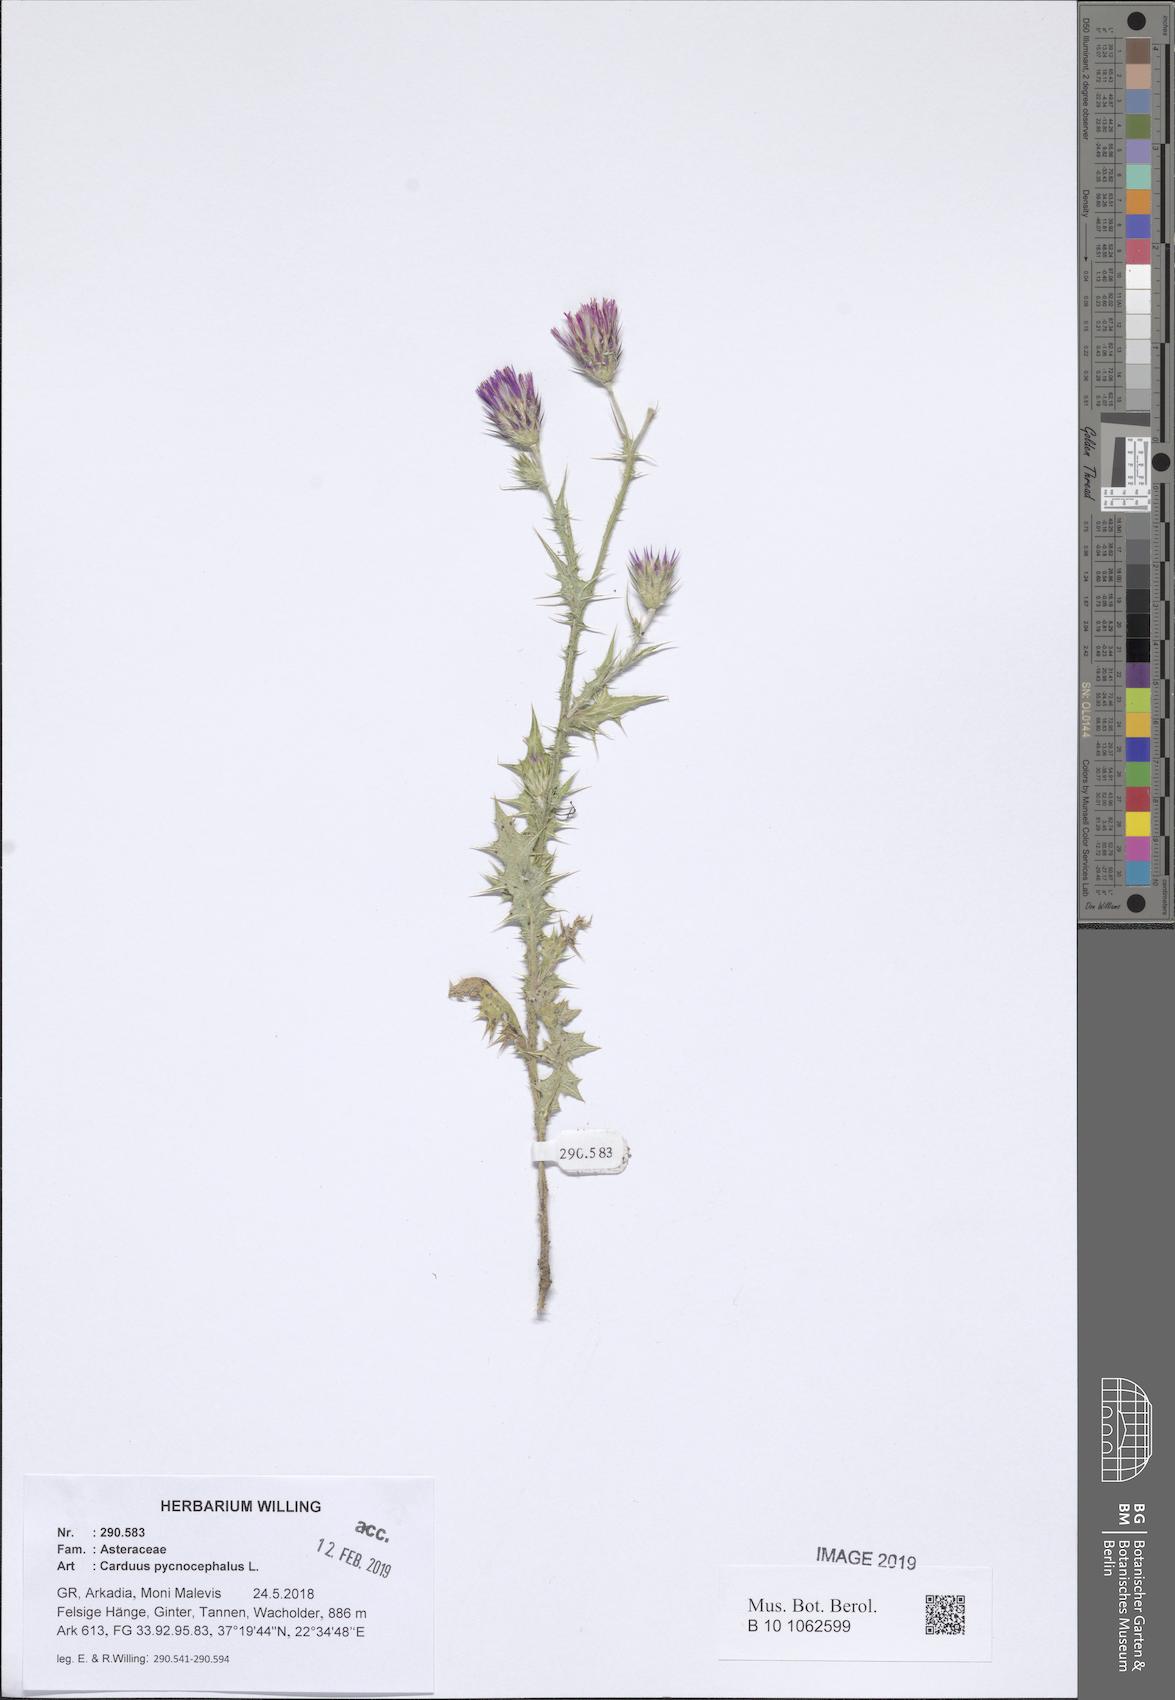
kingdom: Plantae
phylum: Tracheophyta
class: Magnoliopsida
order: Asterales
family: Asteraceae
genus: Carduus
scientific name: Carduus pycnocephalus
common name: Plymouth thistle
